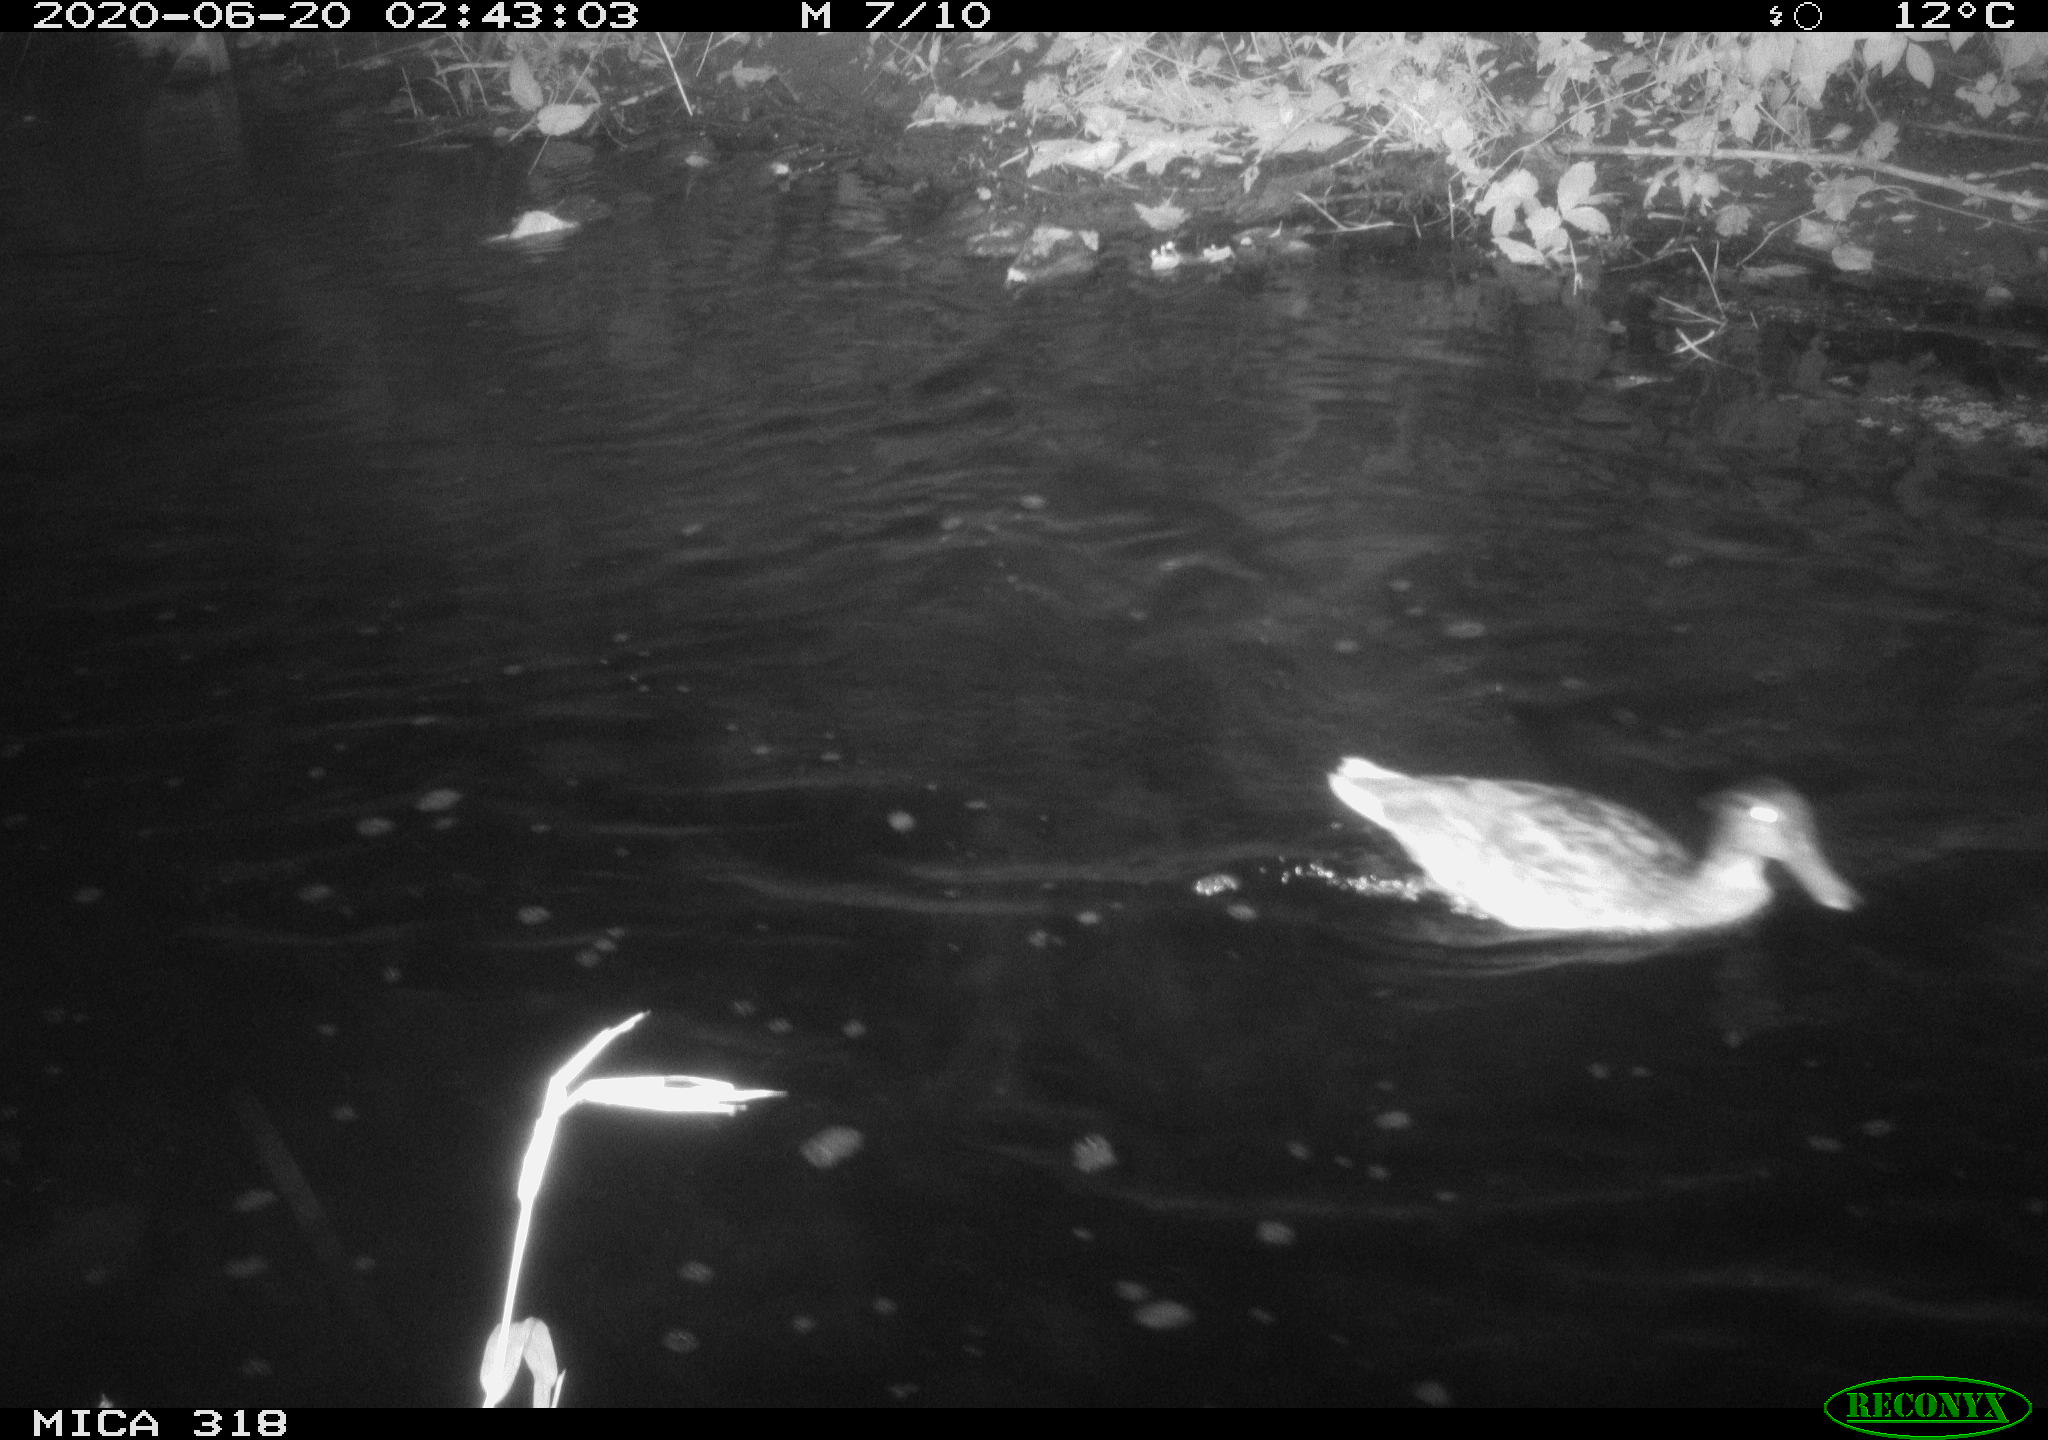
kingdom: Animalia
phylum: Chordata
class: Aves
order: Anseriformes
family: Anatidae
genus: Anas
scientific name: Anas platyrhynchos
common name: Mallard
